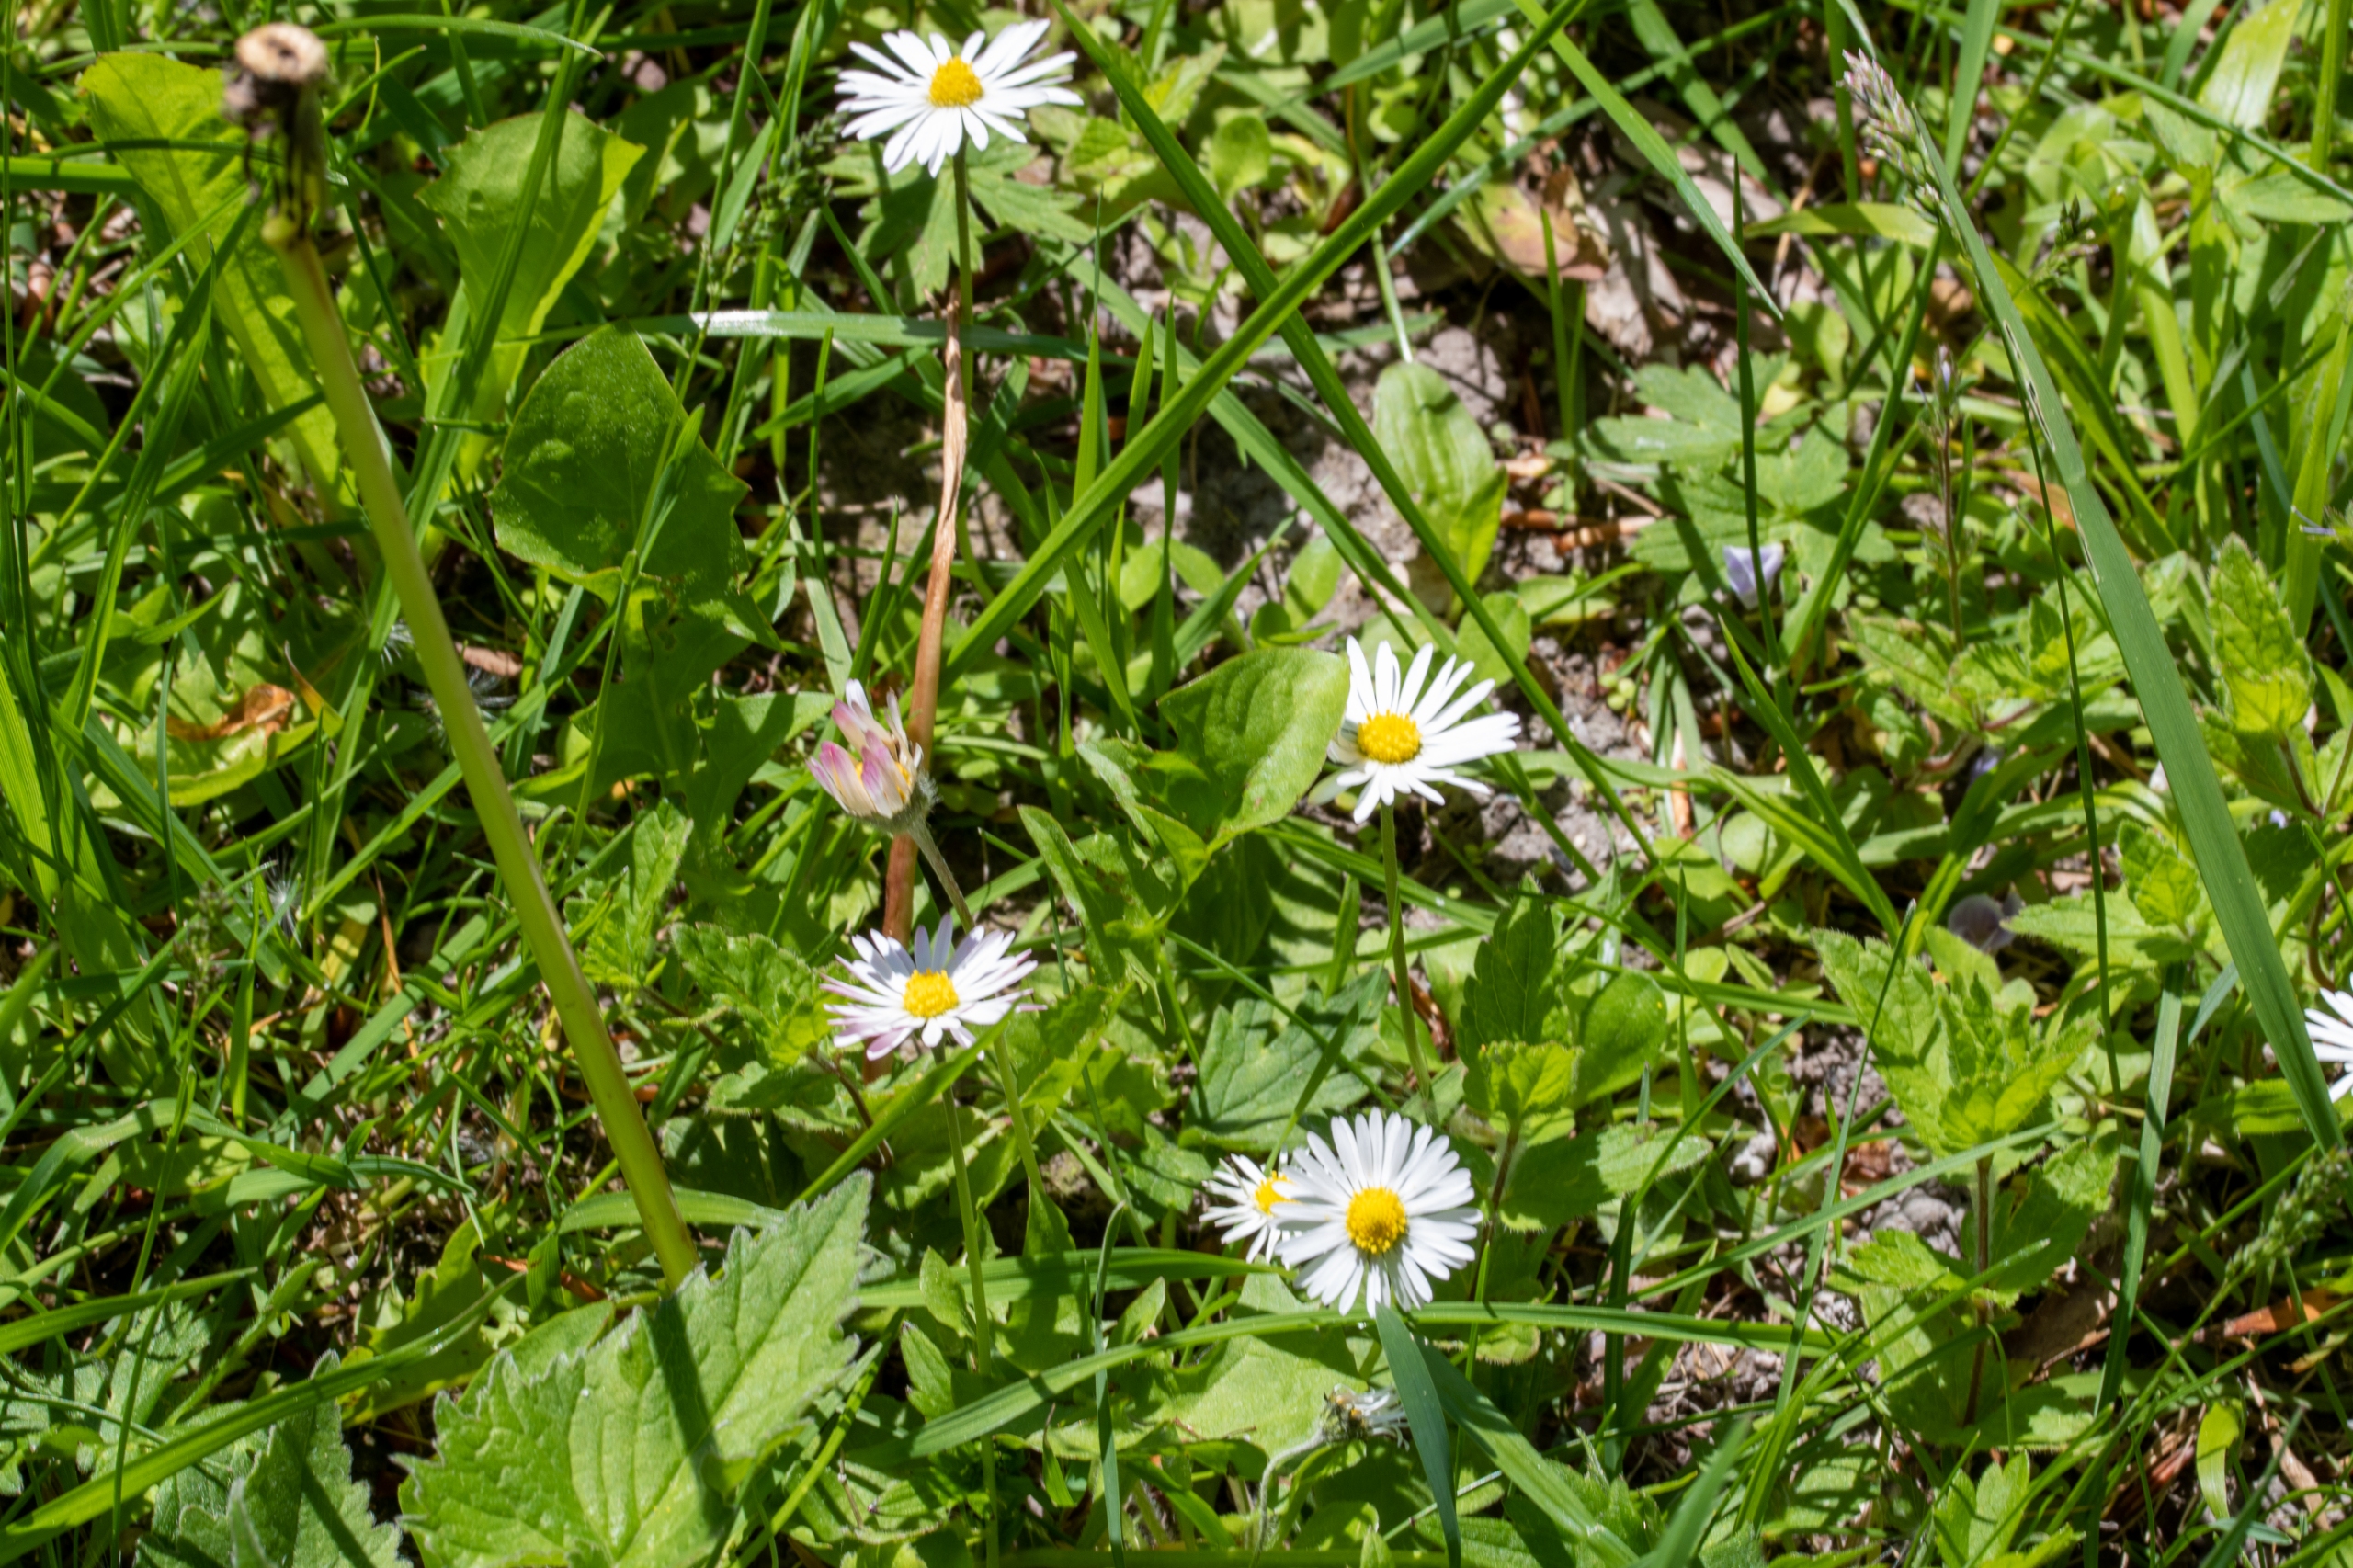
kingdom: Plantae
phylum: Tracheophyta
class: Magnoliopsida
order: Asterales
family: Asteraceae
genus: Bellis
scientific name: Bellis perennis
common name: Tusindfryd
